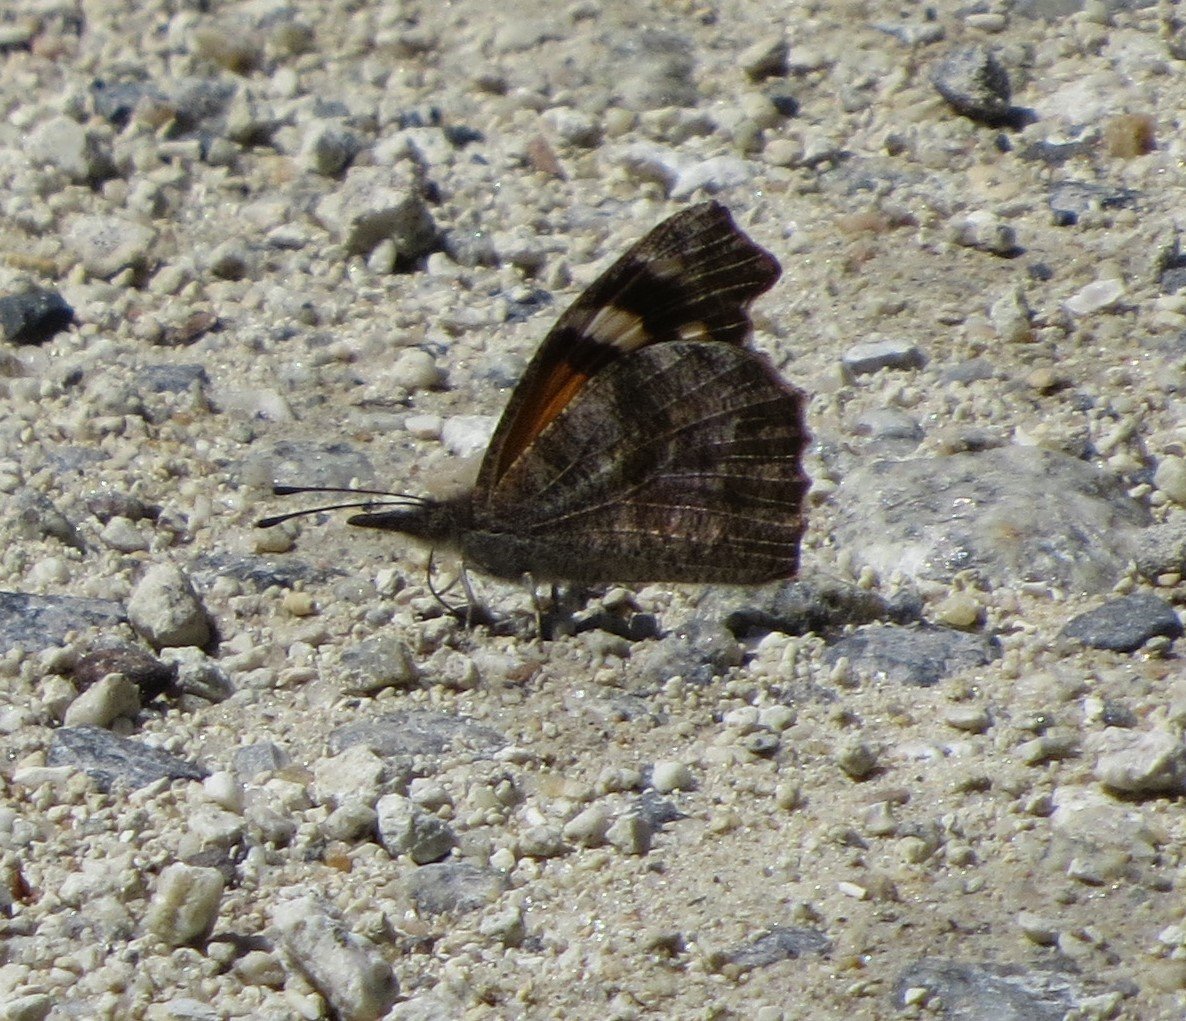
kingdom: Animalia
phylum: Arthropoda
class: Insecta
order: Lepidoptera
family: Nymphalidae
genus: Libytheana
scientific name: Libytheana carinenta
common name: American Snout
